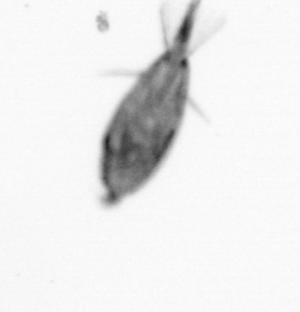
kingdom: Animalia
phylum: Arthropoda
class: Maxillopoda
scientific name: Maxillopoda
